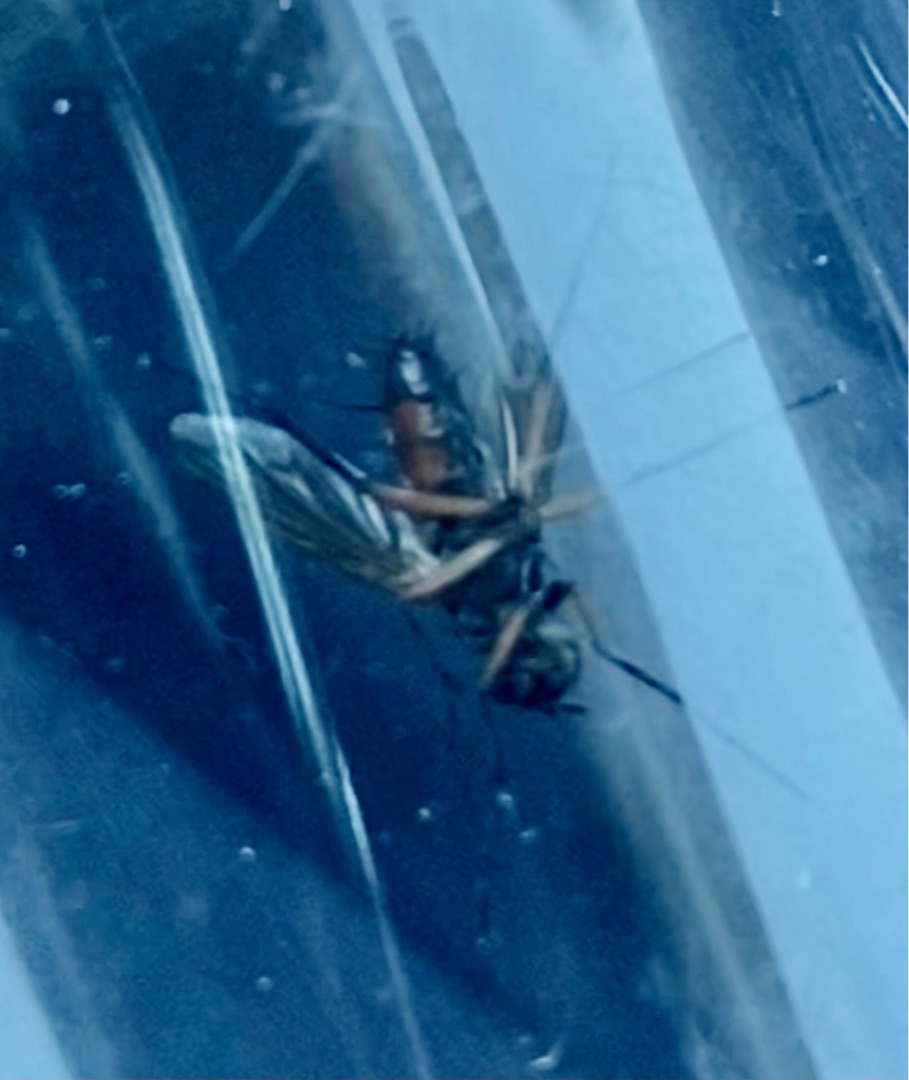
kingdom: Animalia
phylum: Arthropoda
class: Insecta
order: Diptera
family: Tachinidae
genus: Mintho
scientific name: Mintho rufiventris
